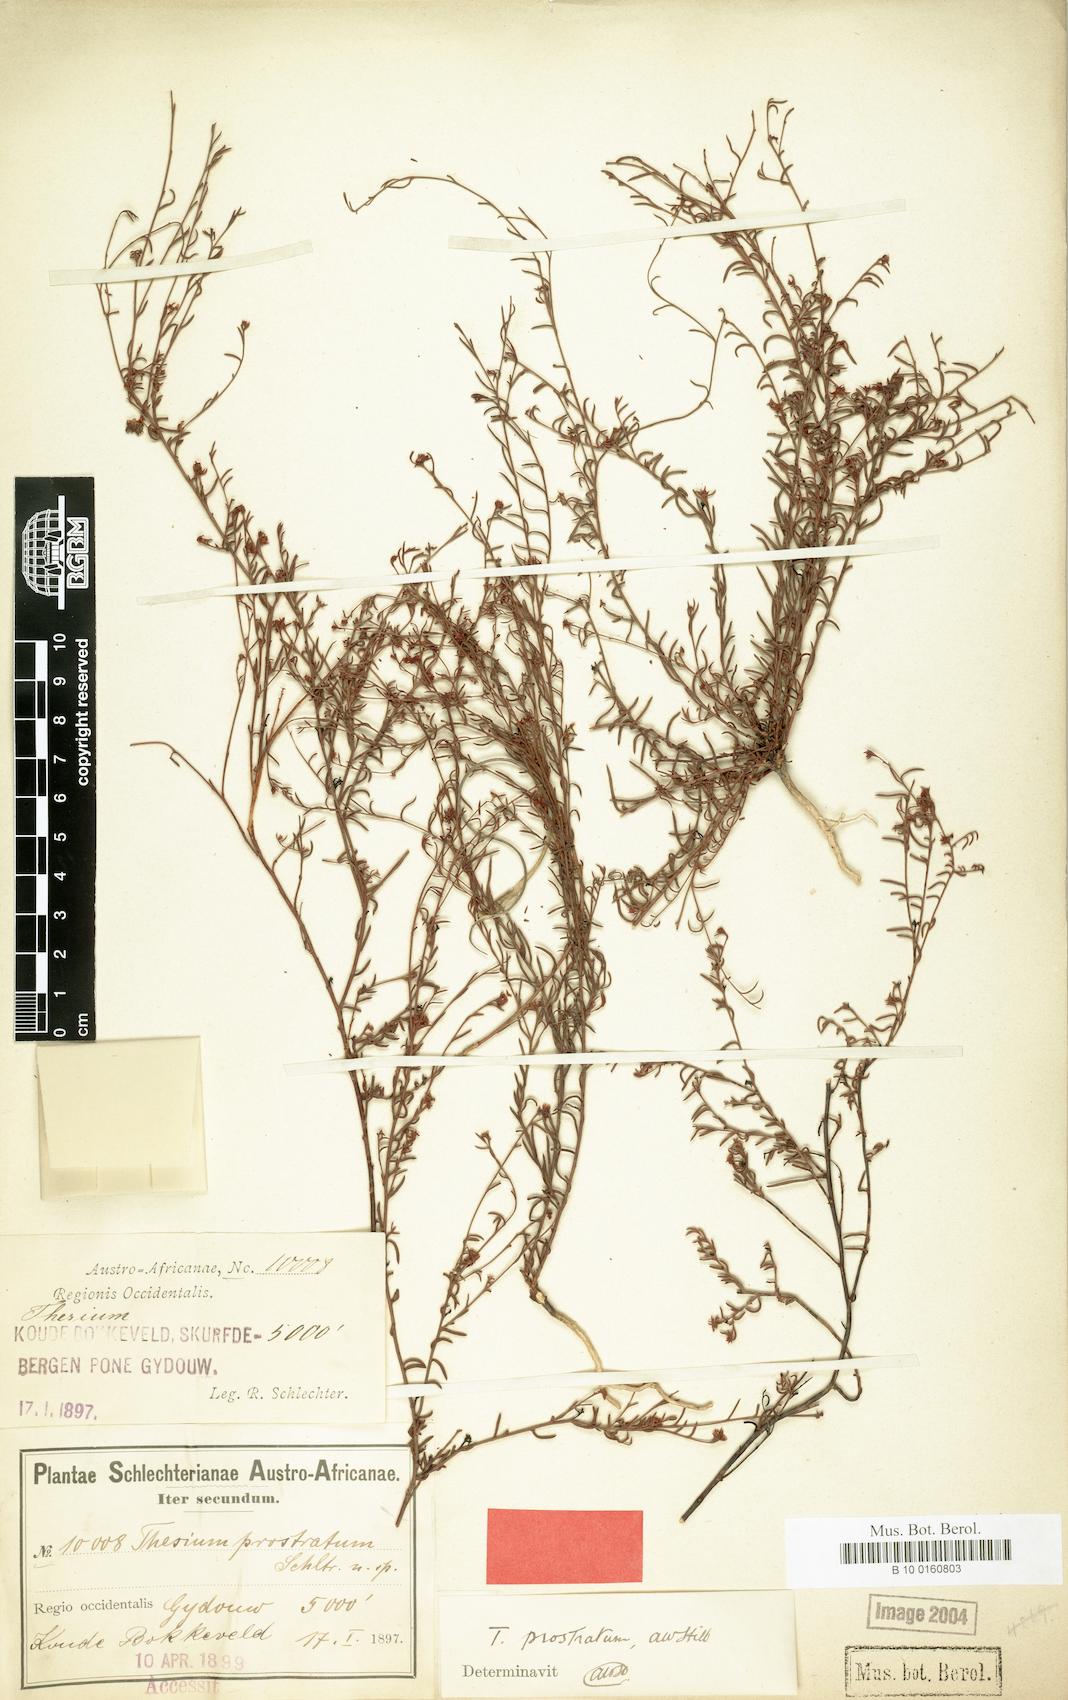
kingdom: Plantae
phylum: Tracheophyta
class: Magnoliopsida
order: Santalales
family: Thesiaceae
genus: Thesium
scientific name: Thesium prostratum
